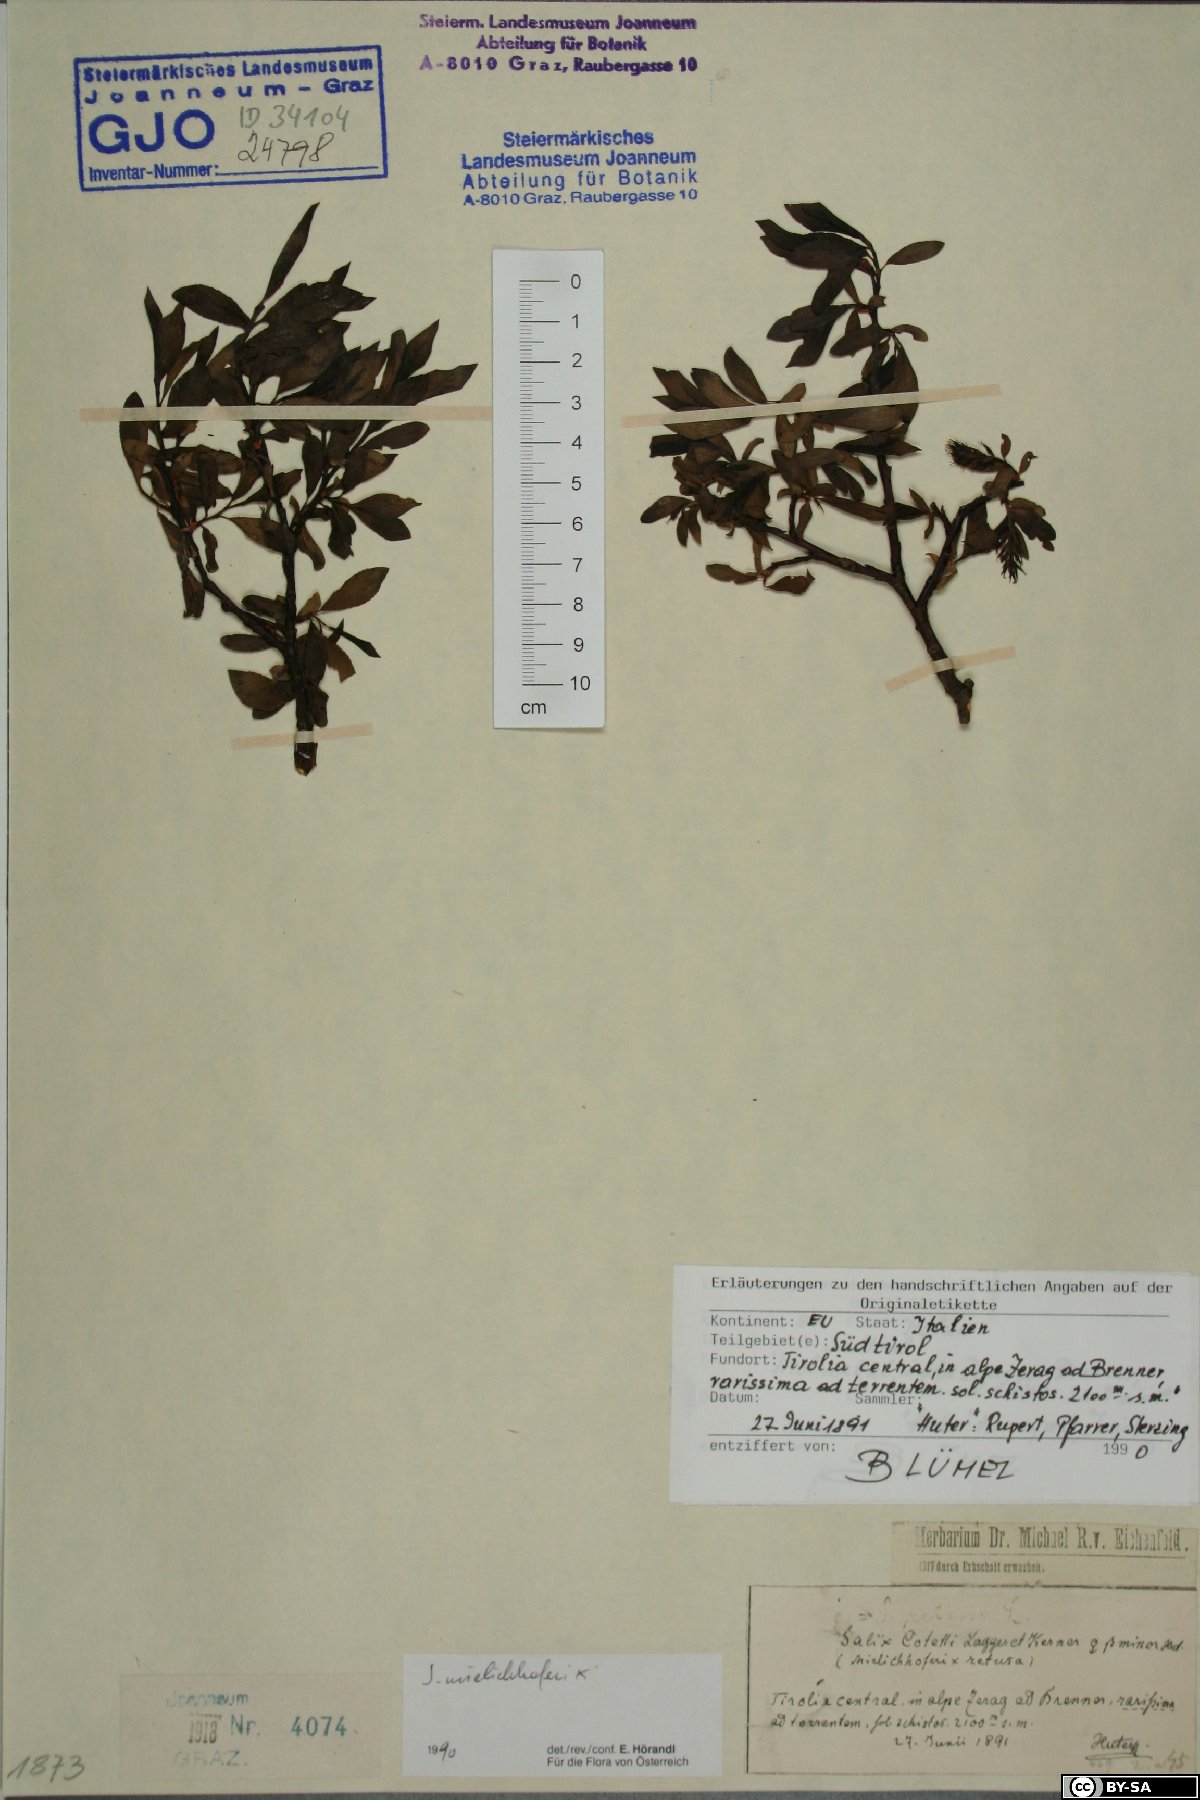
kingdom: Plantae
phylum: Tracheophyta
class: Magnoliopsida
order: Malpighiales
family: Salicaceae
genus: Salix
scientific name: Salix mielichhoferi
